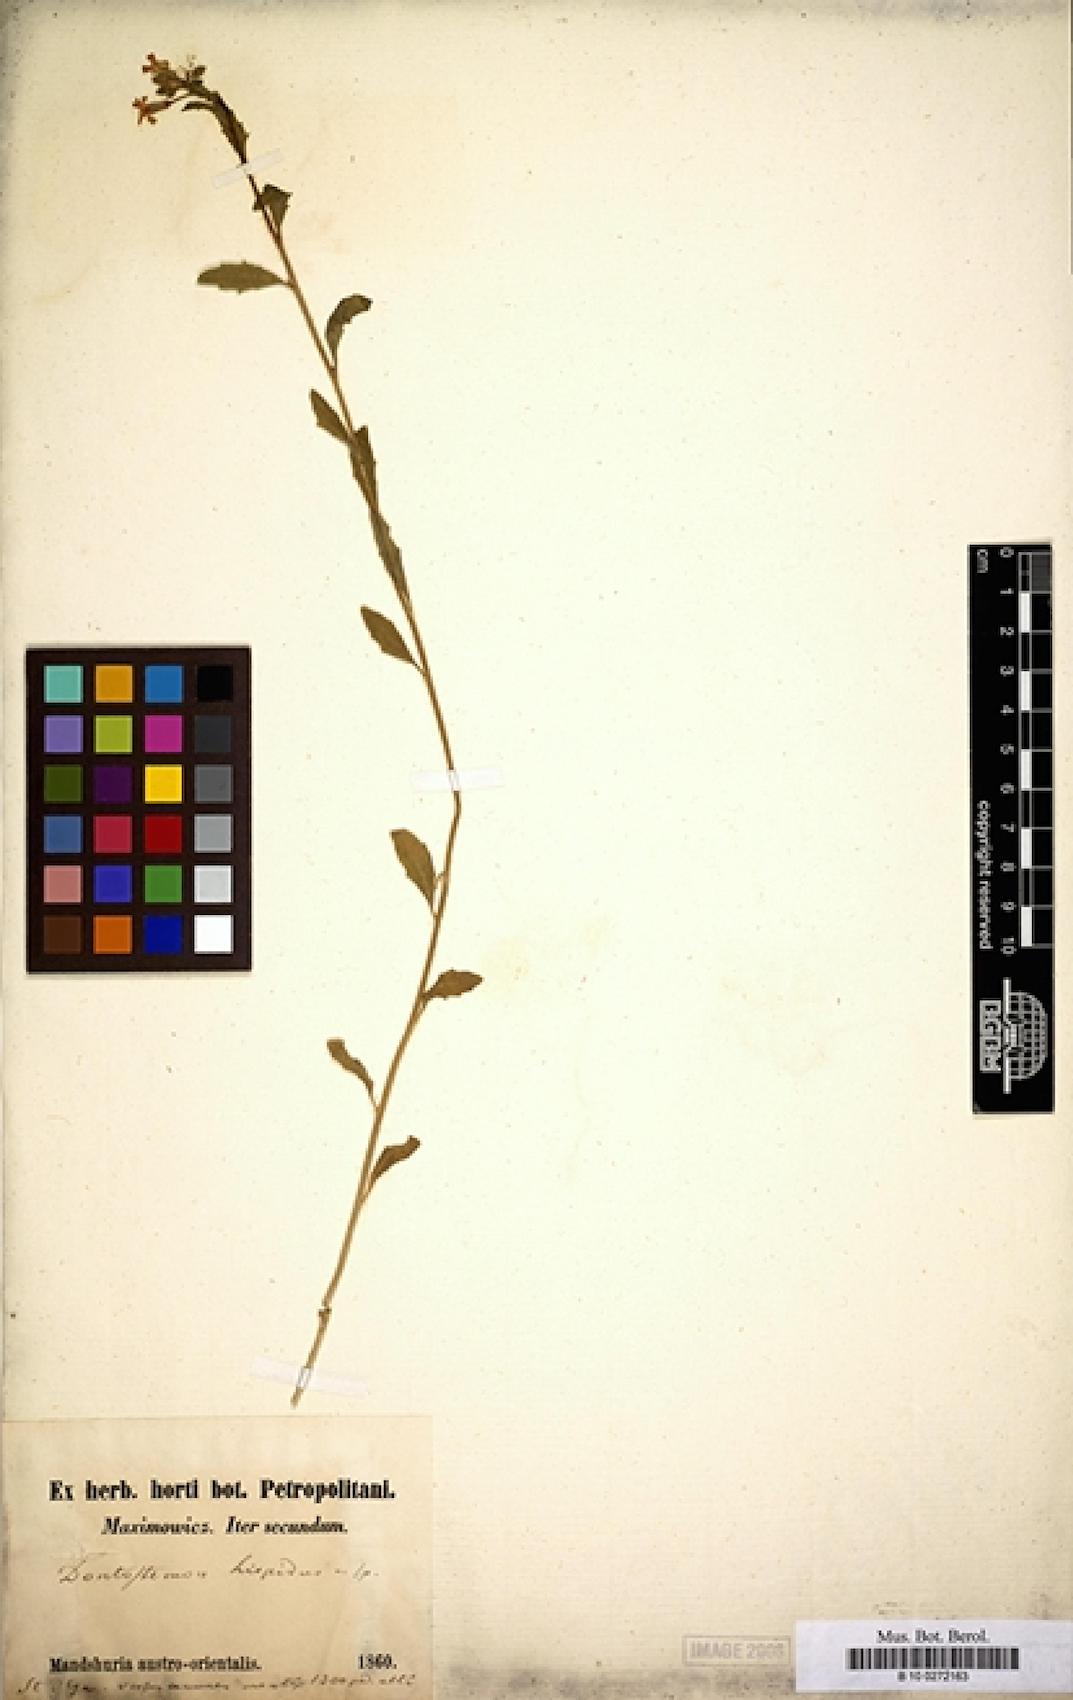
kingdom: Plantae
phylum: Tracheophyta
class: Magnoliopsida
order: Brassicales
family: Brassicaceae
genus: Dontostemon
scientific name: Dontostemon hispidus
